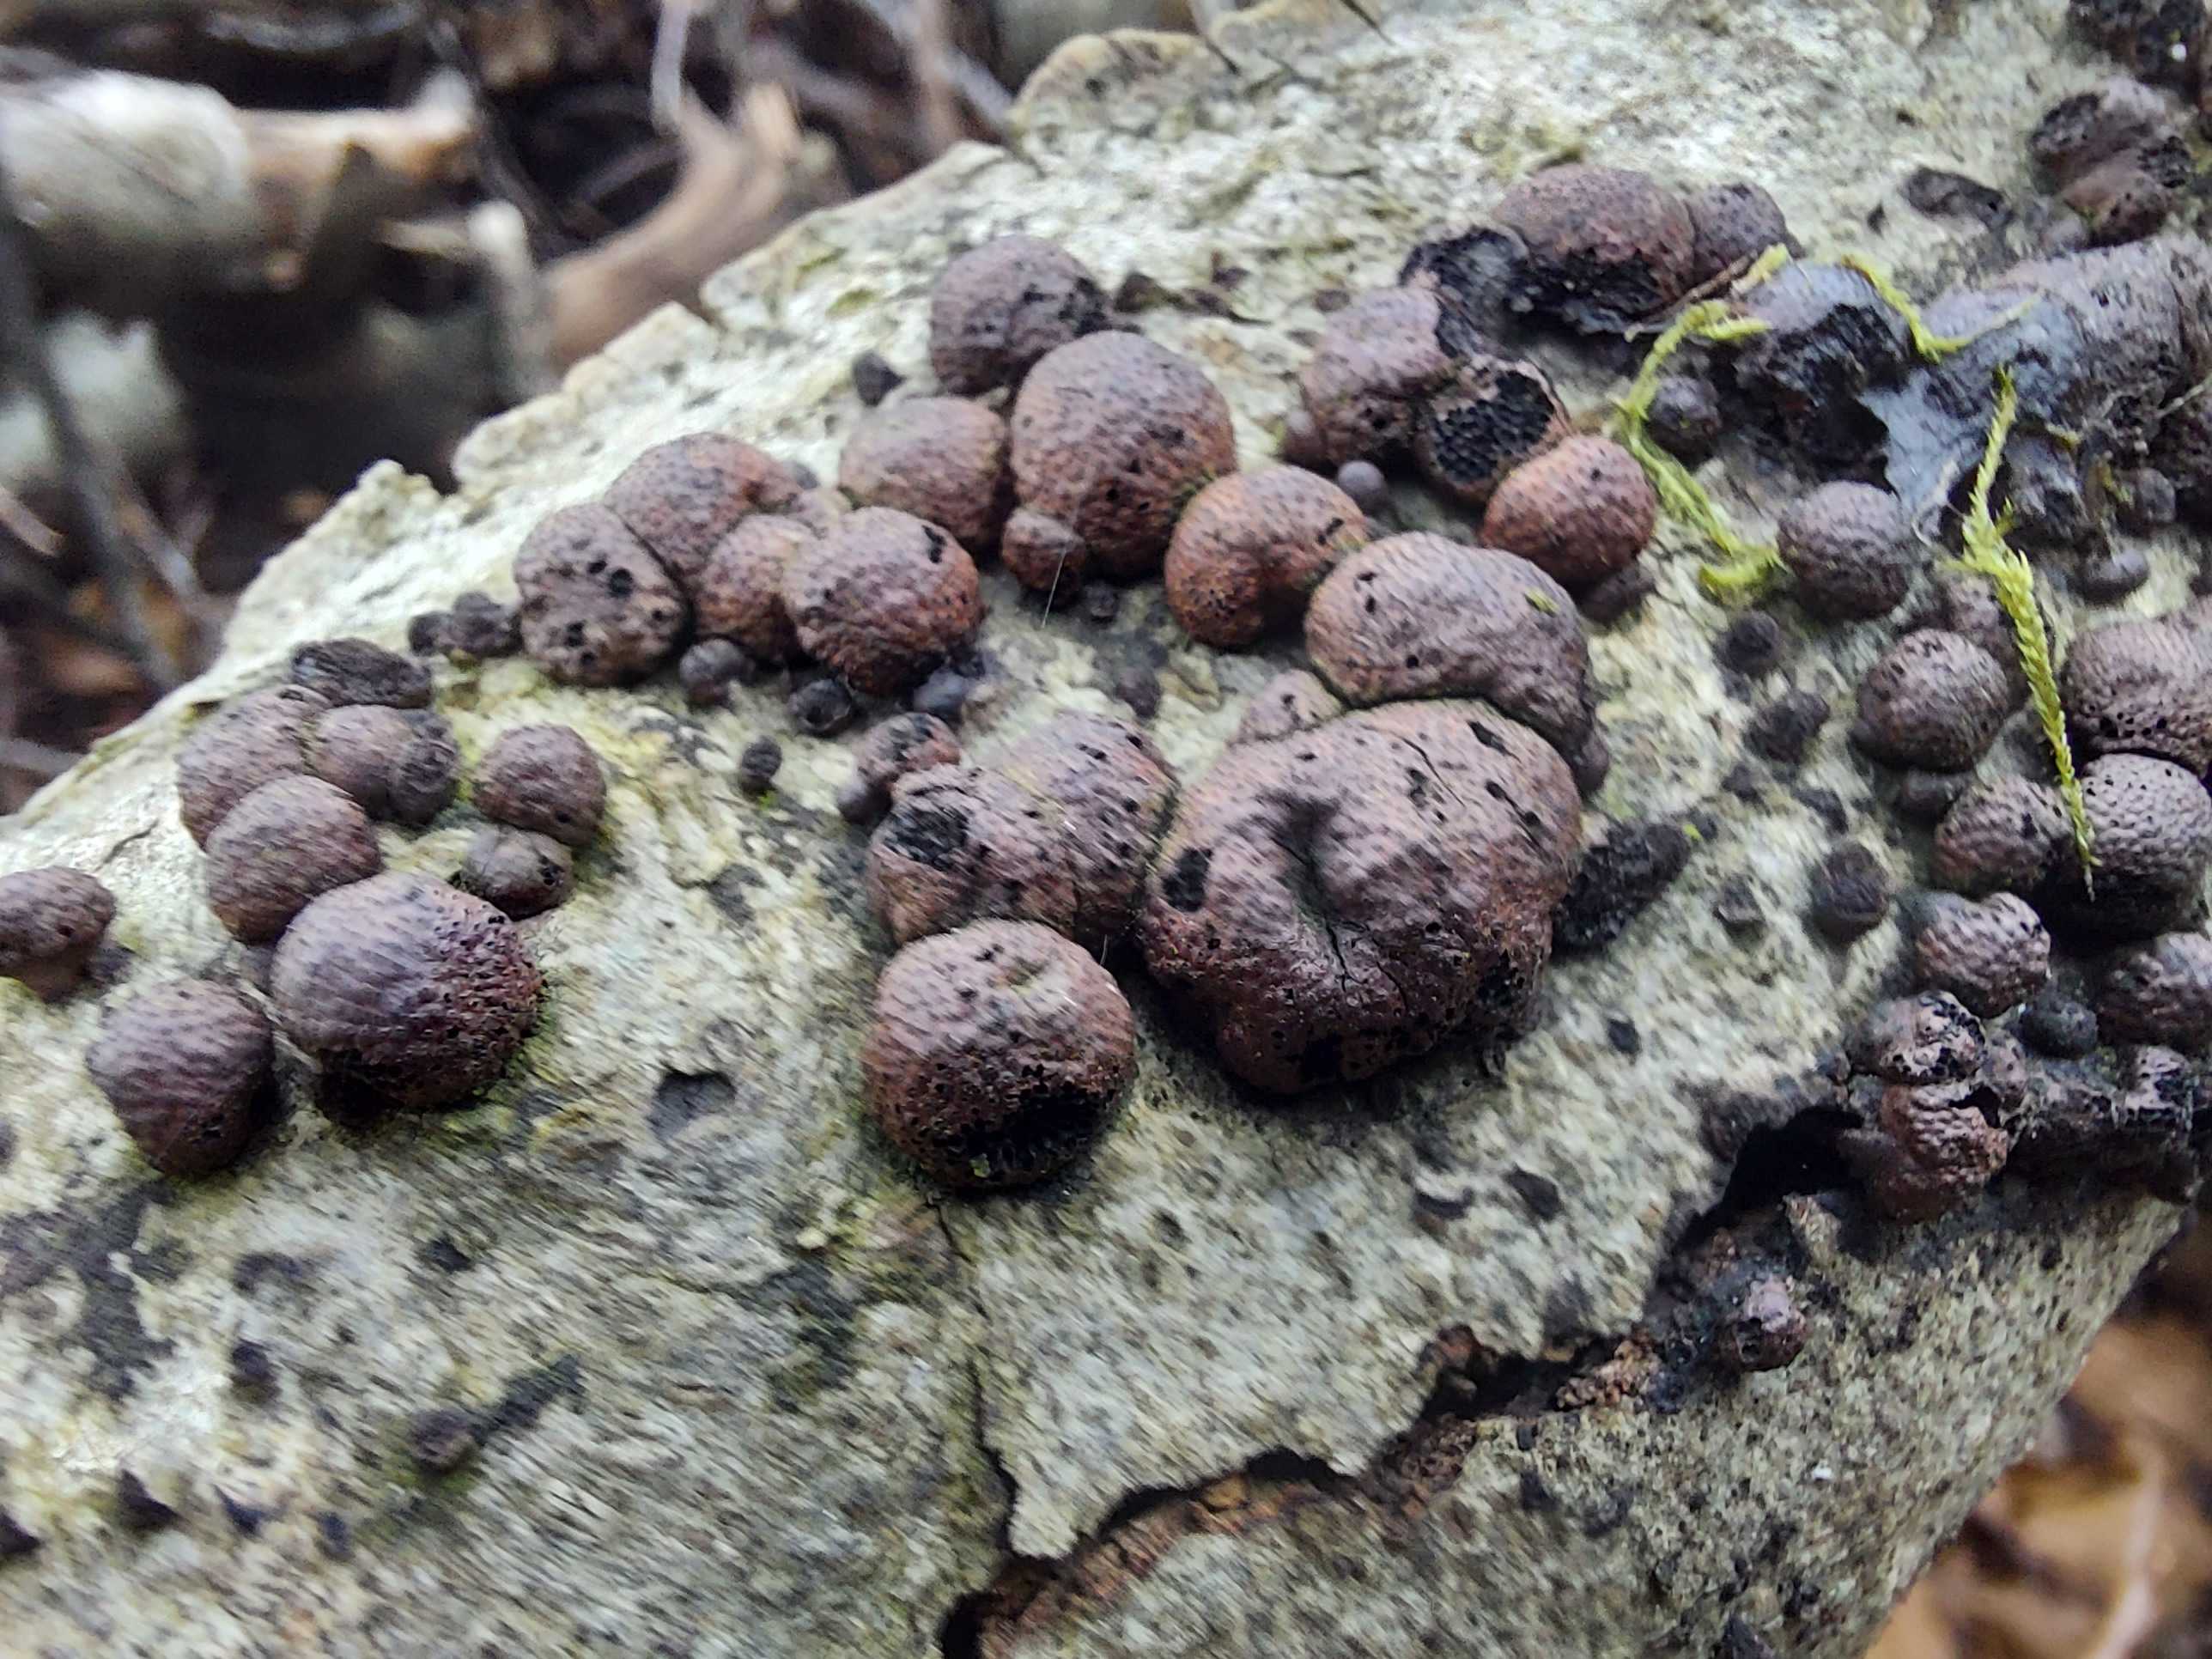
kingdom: Fungi
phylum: Ascomycota
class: Sordariomycetes
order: Xylariales
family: Hypoxylaceae
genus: Hypoxylon
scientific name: Hypoxylon fragiforme
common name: kuljordbær
